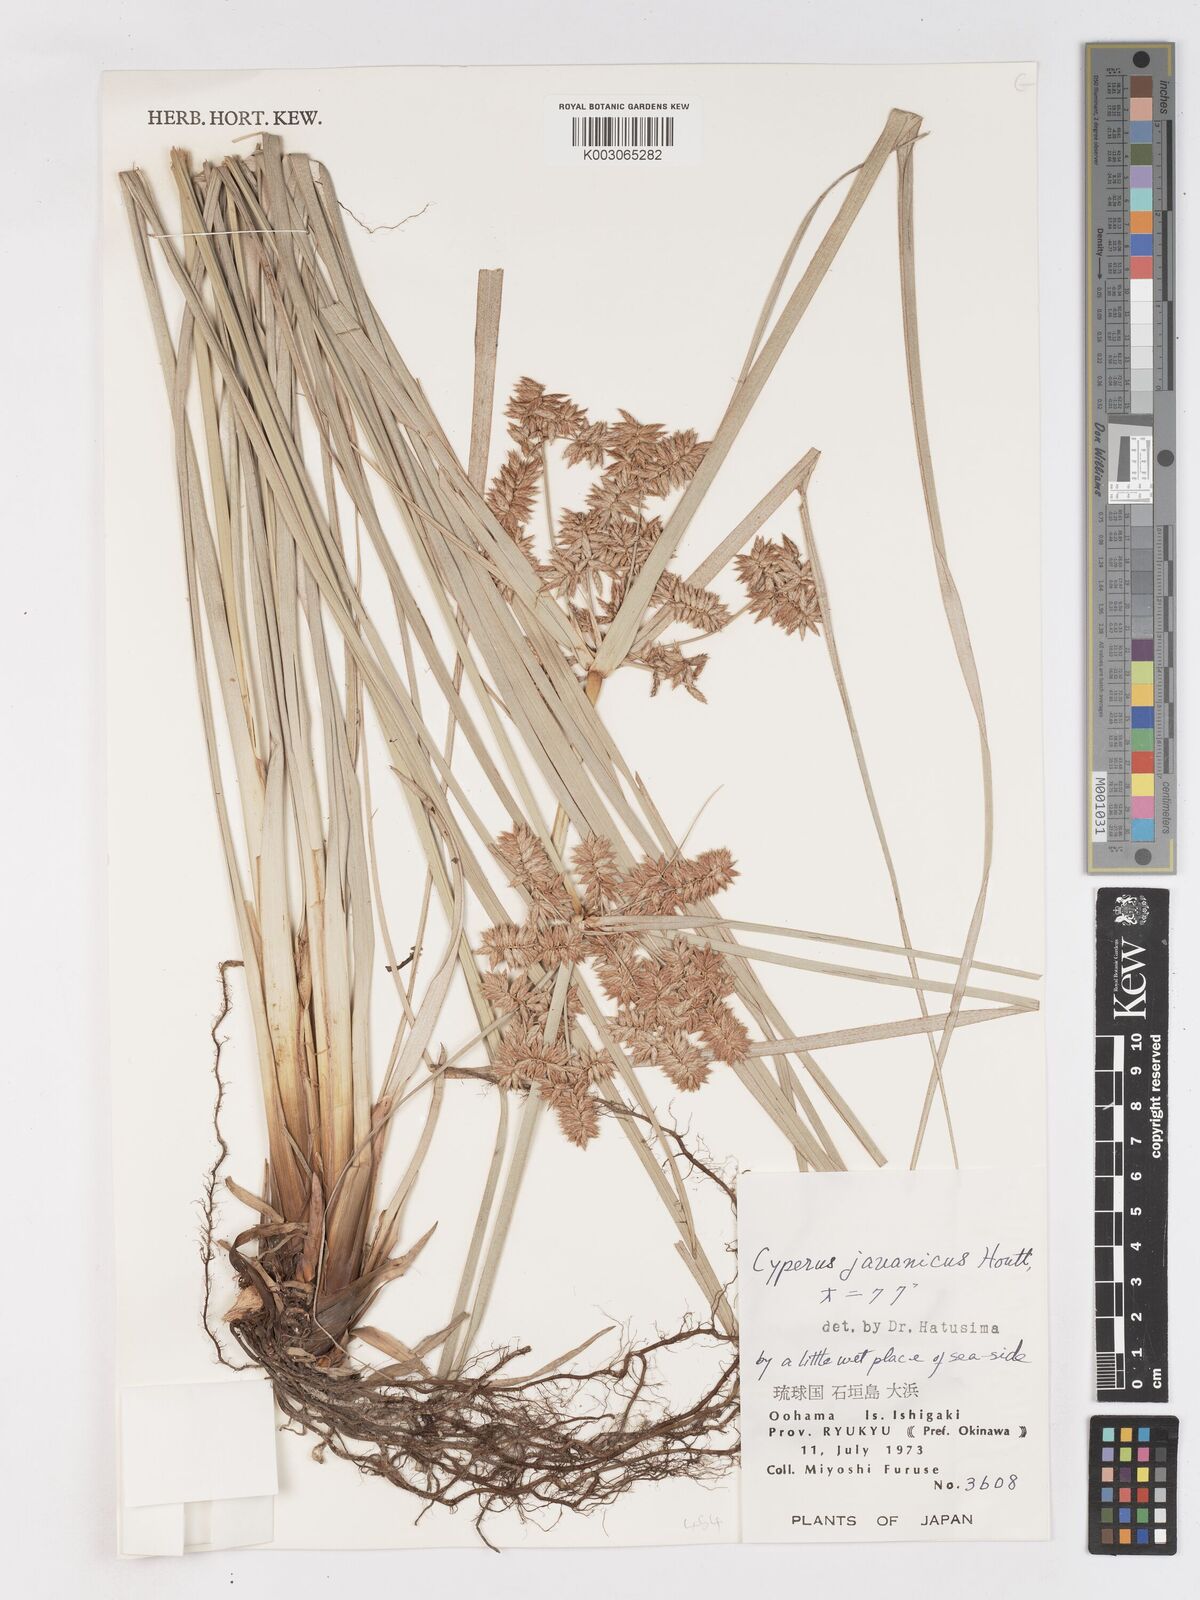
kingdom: Plantae
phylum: Tracheophyta
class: Liliopsida
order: Poales
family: Cyperaceae
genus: Cyperus
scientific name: Cyperus javanicus
